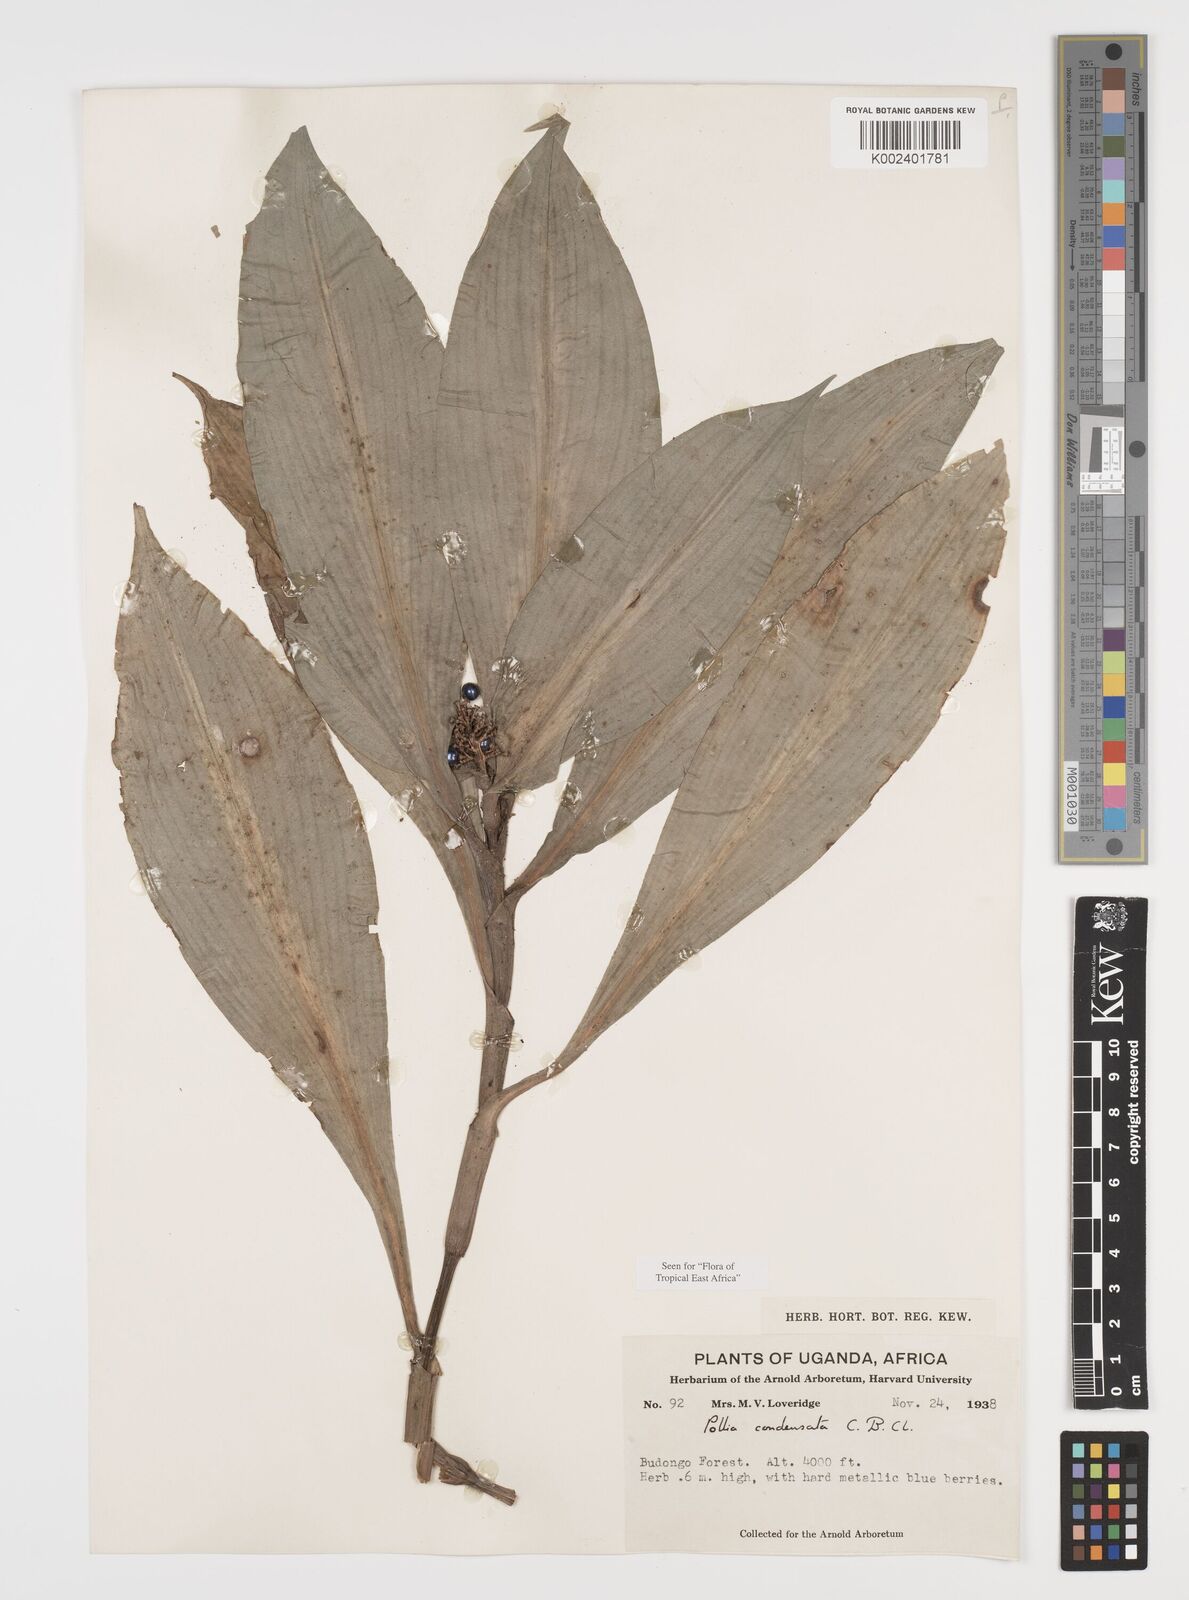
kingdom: Plantae
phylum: Tracheophyta
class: Liliopsida
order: Commelinales
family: Commelinaceae
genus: Pollia
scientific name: Pollia condensata
